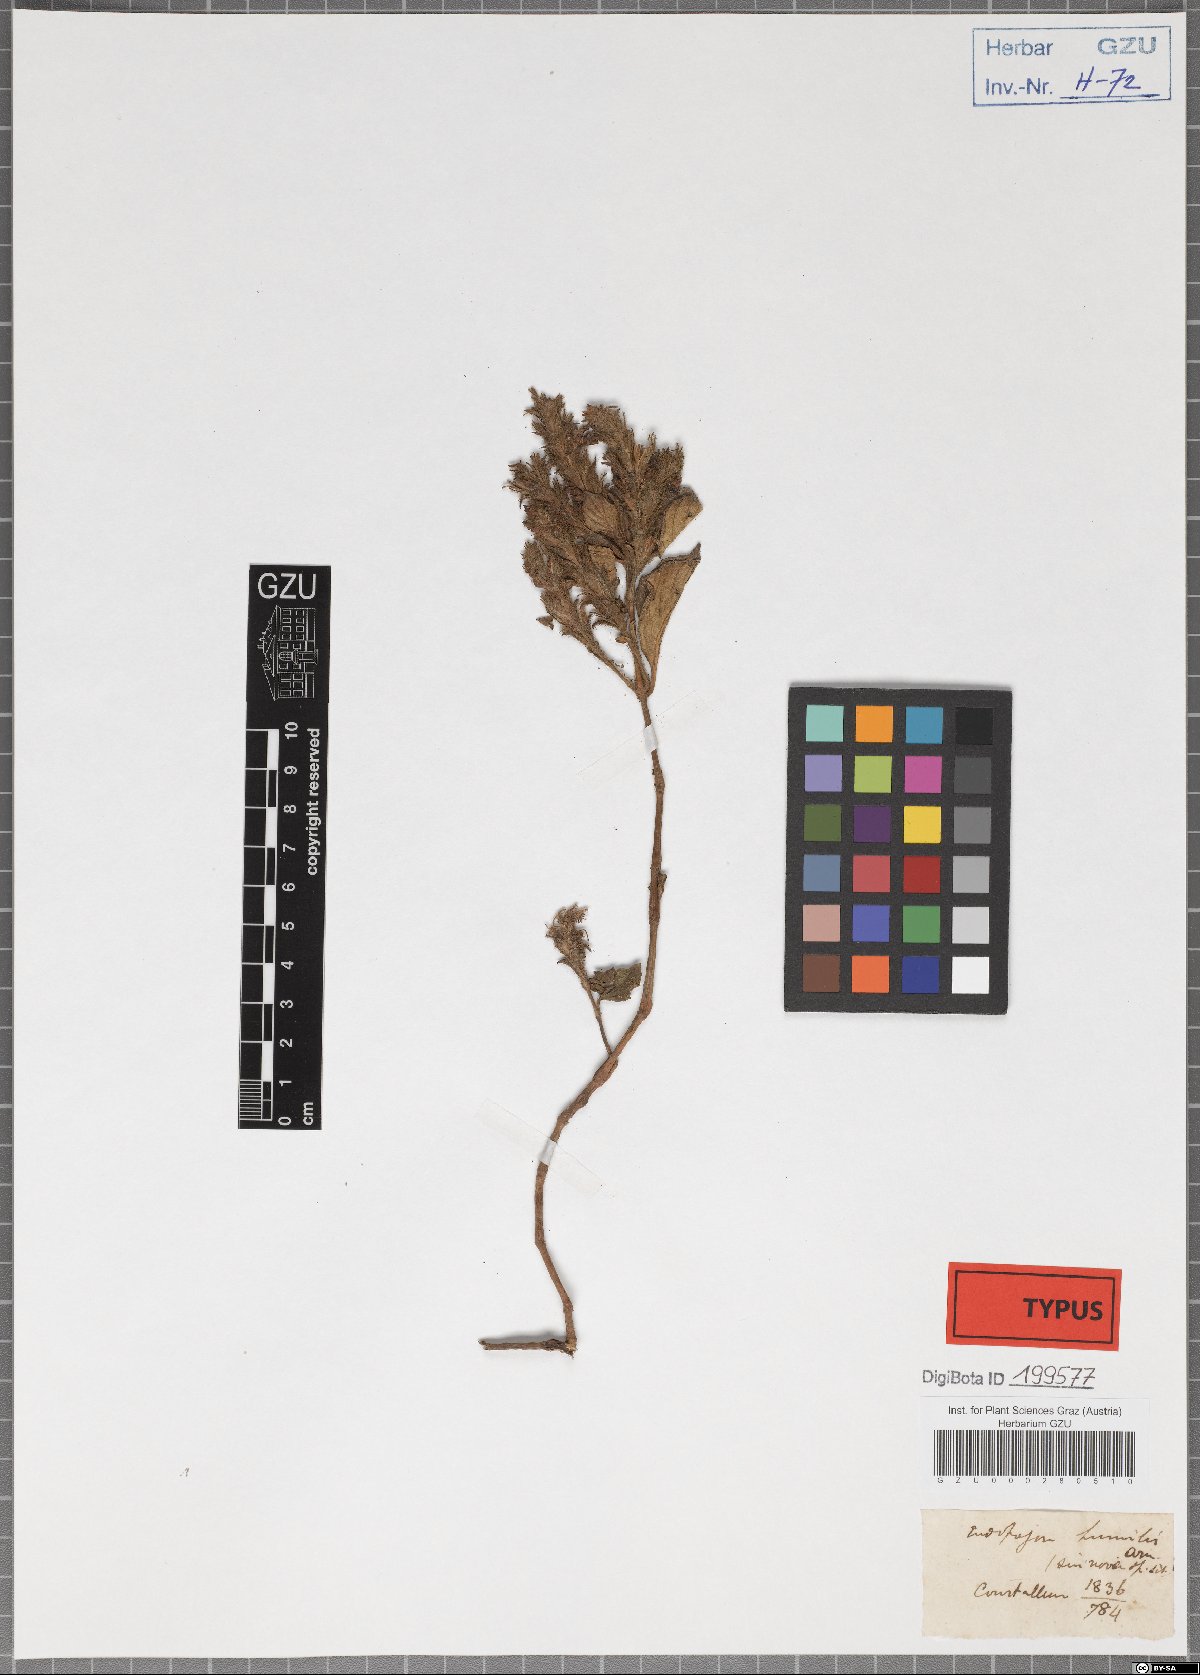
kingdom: Plantae
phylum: Tracheophyta
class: Magnoliopsida
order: Lamiales
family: Acanthaceae
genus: Strobilanthes
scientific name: Strobilanthes humilis
